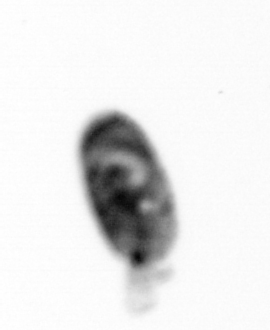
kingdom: Animalia
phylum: Arthropoda
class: Copepoda
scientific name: Copepoda
